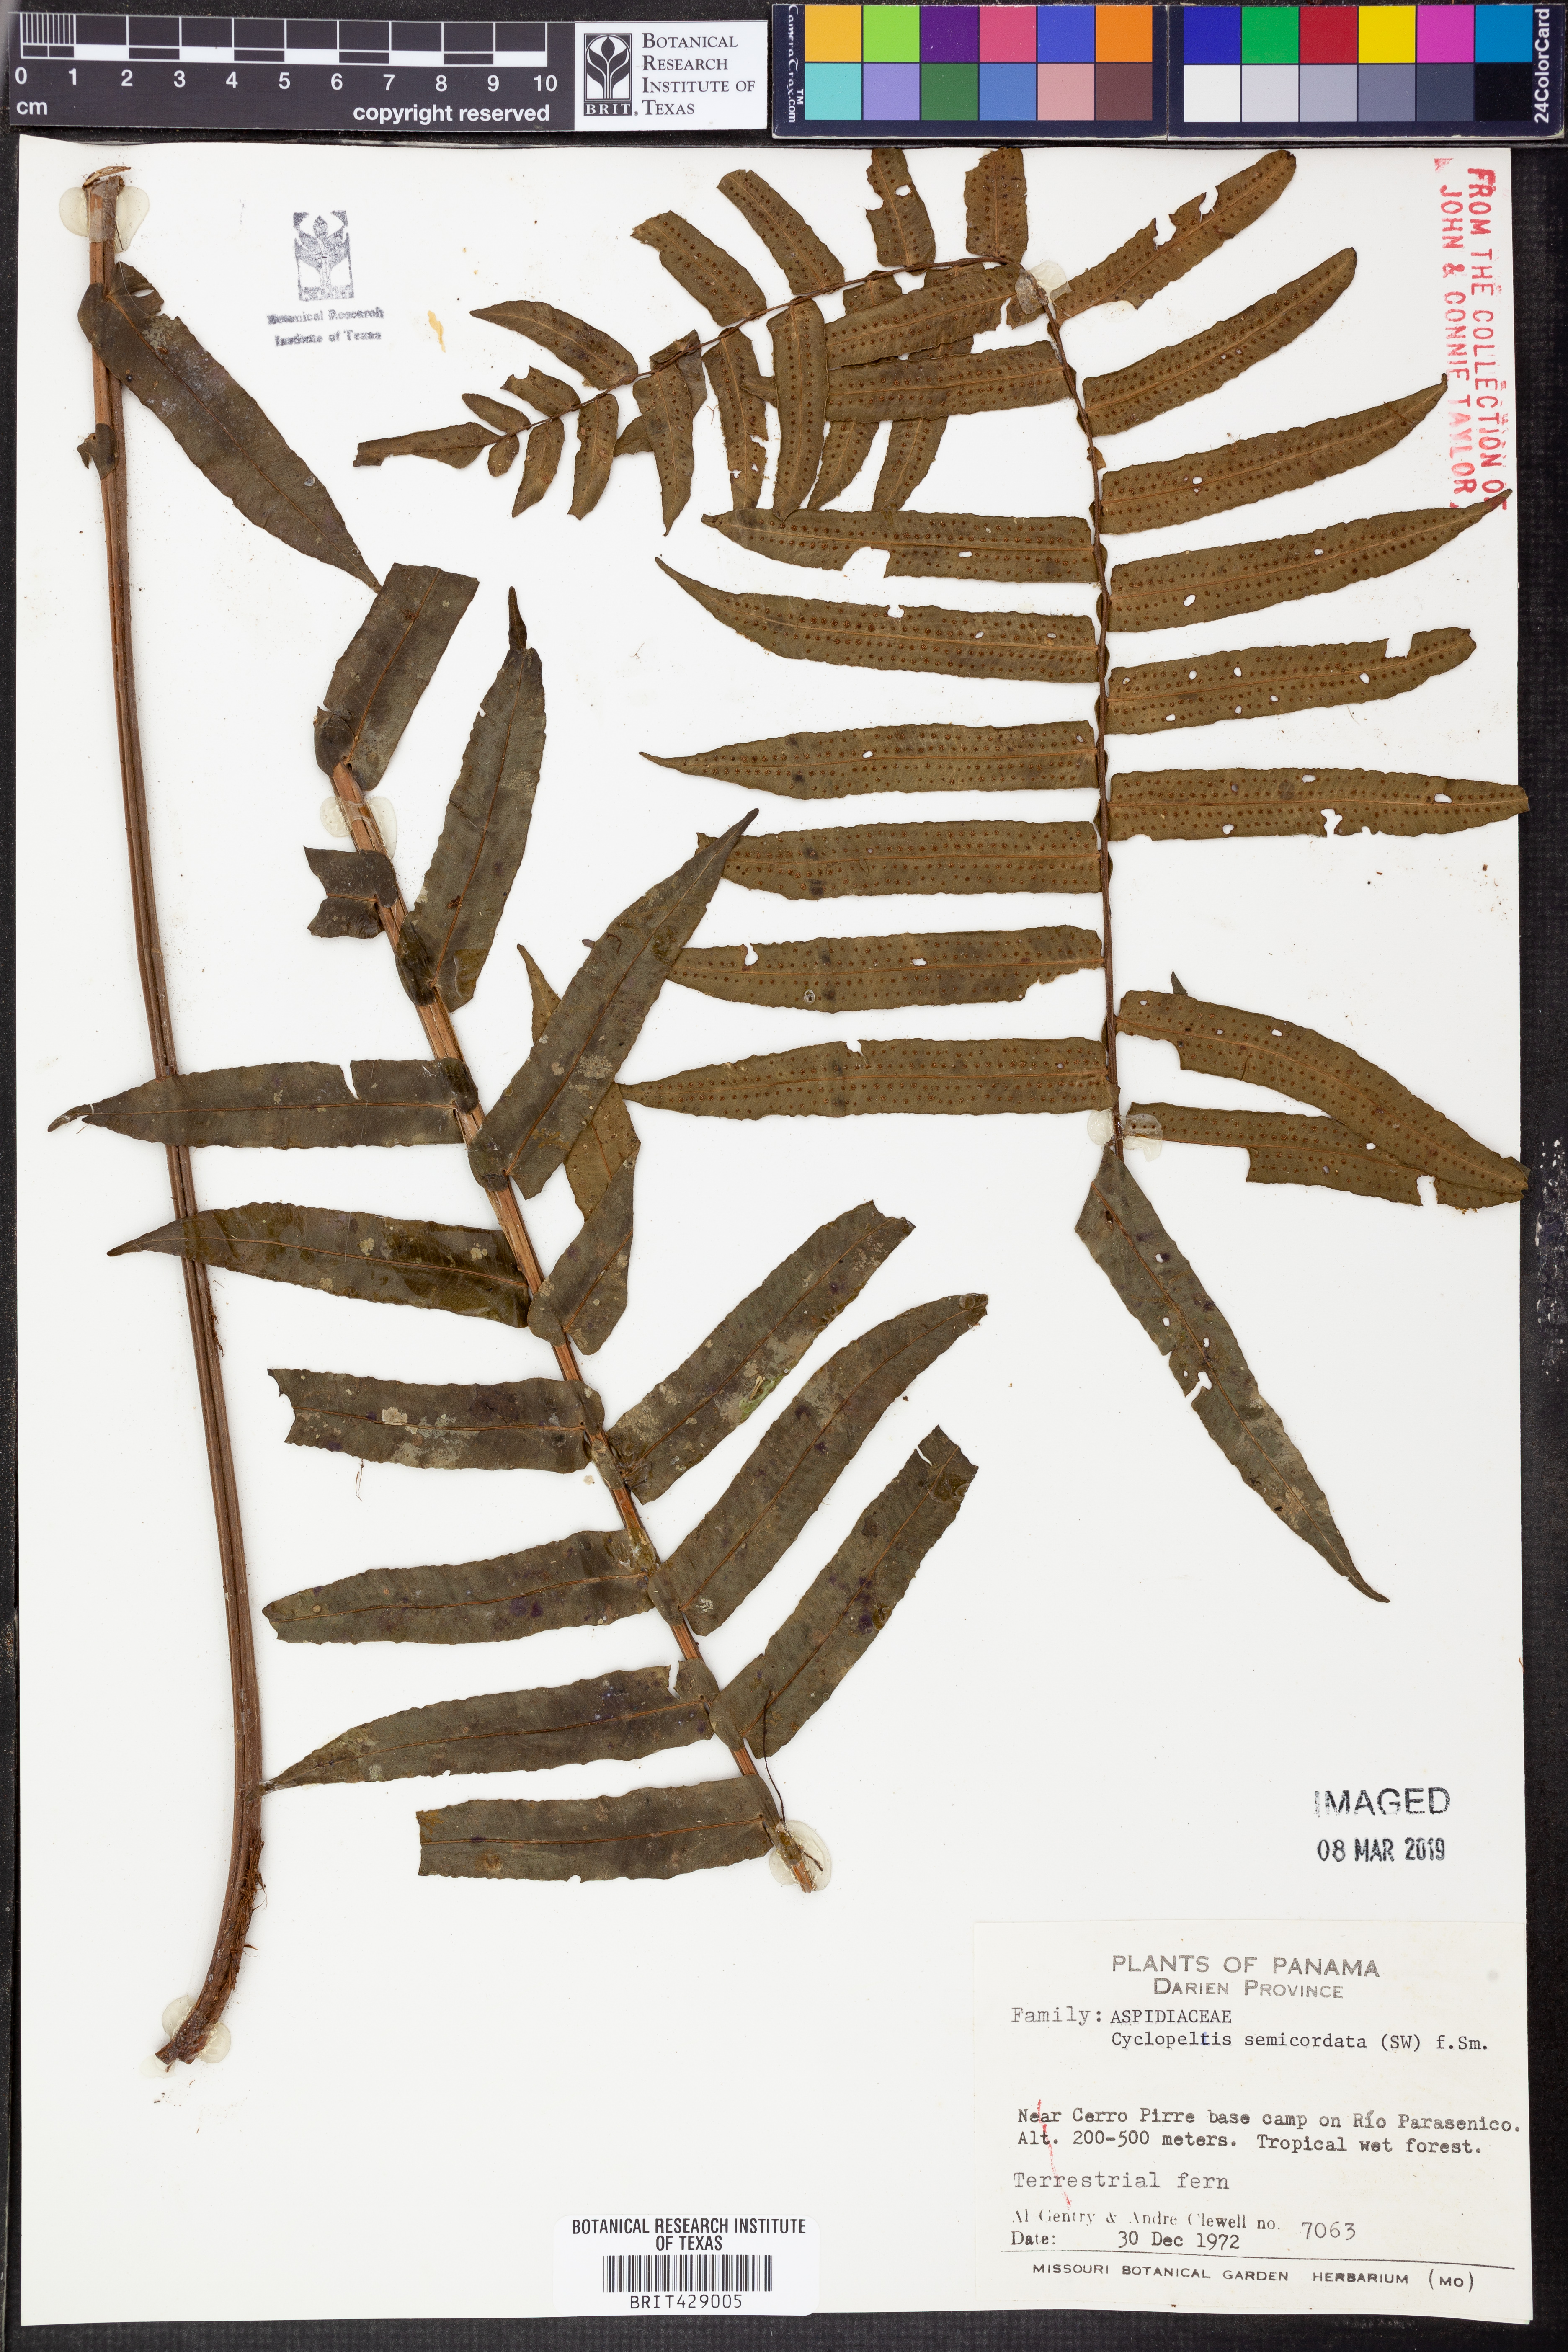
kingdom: Plantae
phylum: Tracheophyta
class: Polypodiopsida
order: Polypodiales
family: Lomariopsidaceae
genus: Cyclopeltis
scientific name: Cyclopeltis semicordata
